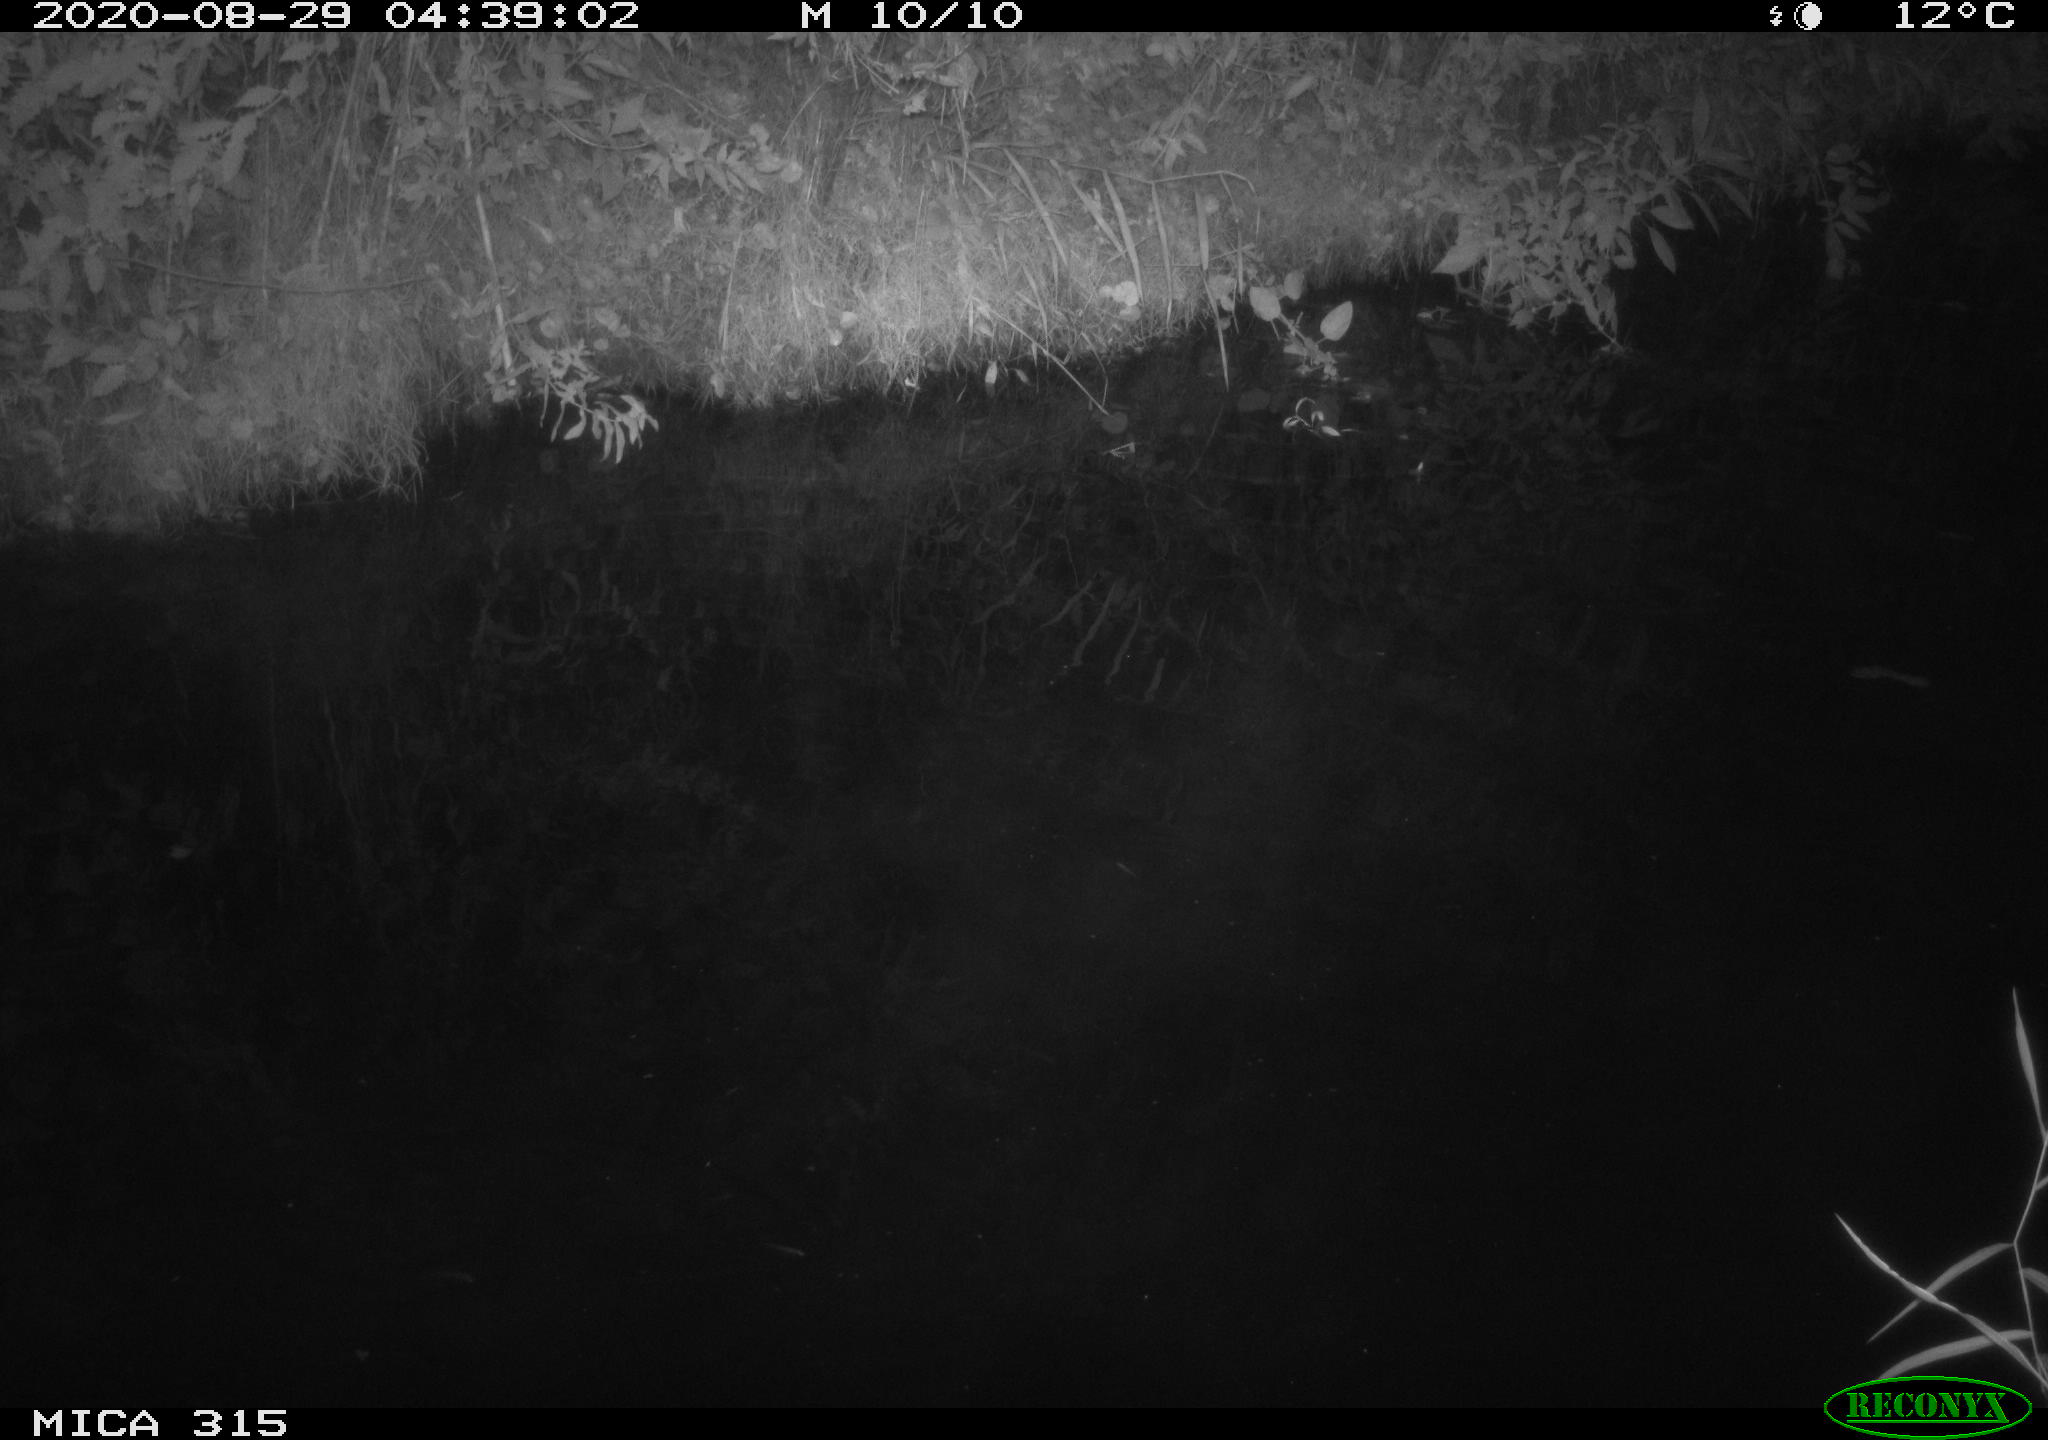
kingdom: Animalia
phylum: Chordata
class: Aves
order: Anseriformes
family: Anatidae
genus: Anas
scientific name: Anas platyrhynchos
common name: Mallard
